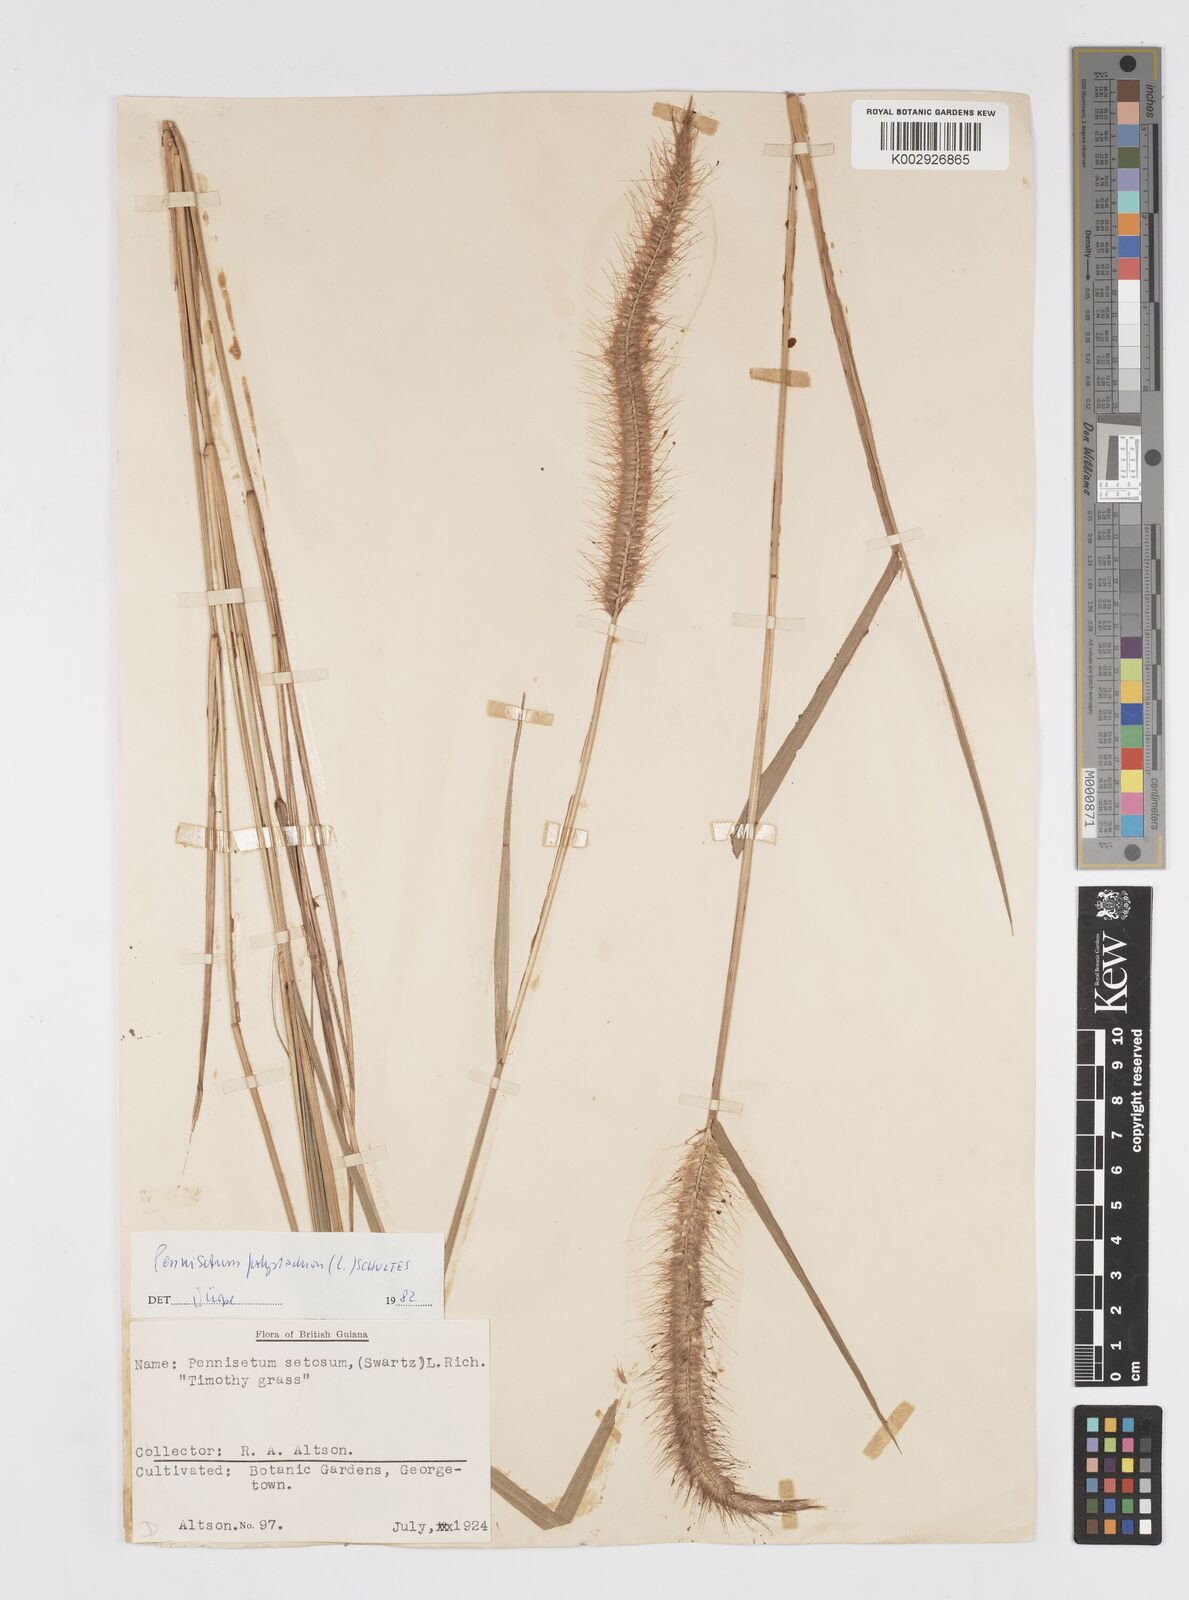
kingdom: Plantae
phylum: Tracheophyta
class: Liliopsida
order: Poales
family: Poaceae
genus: Cenchrus
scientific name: Cenchrus setosus
